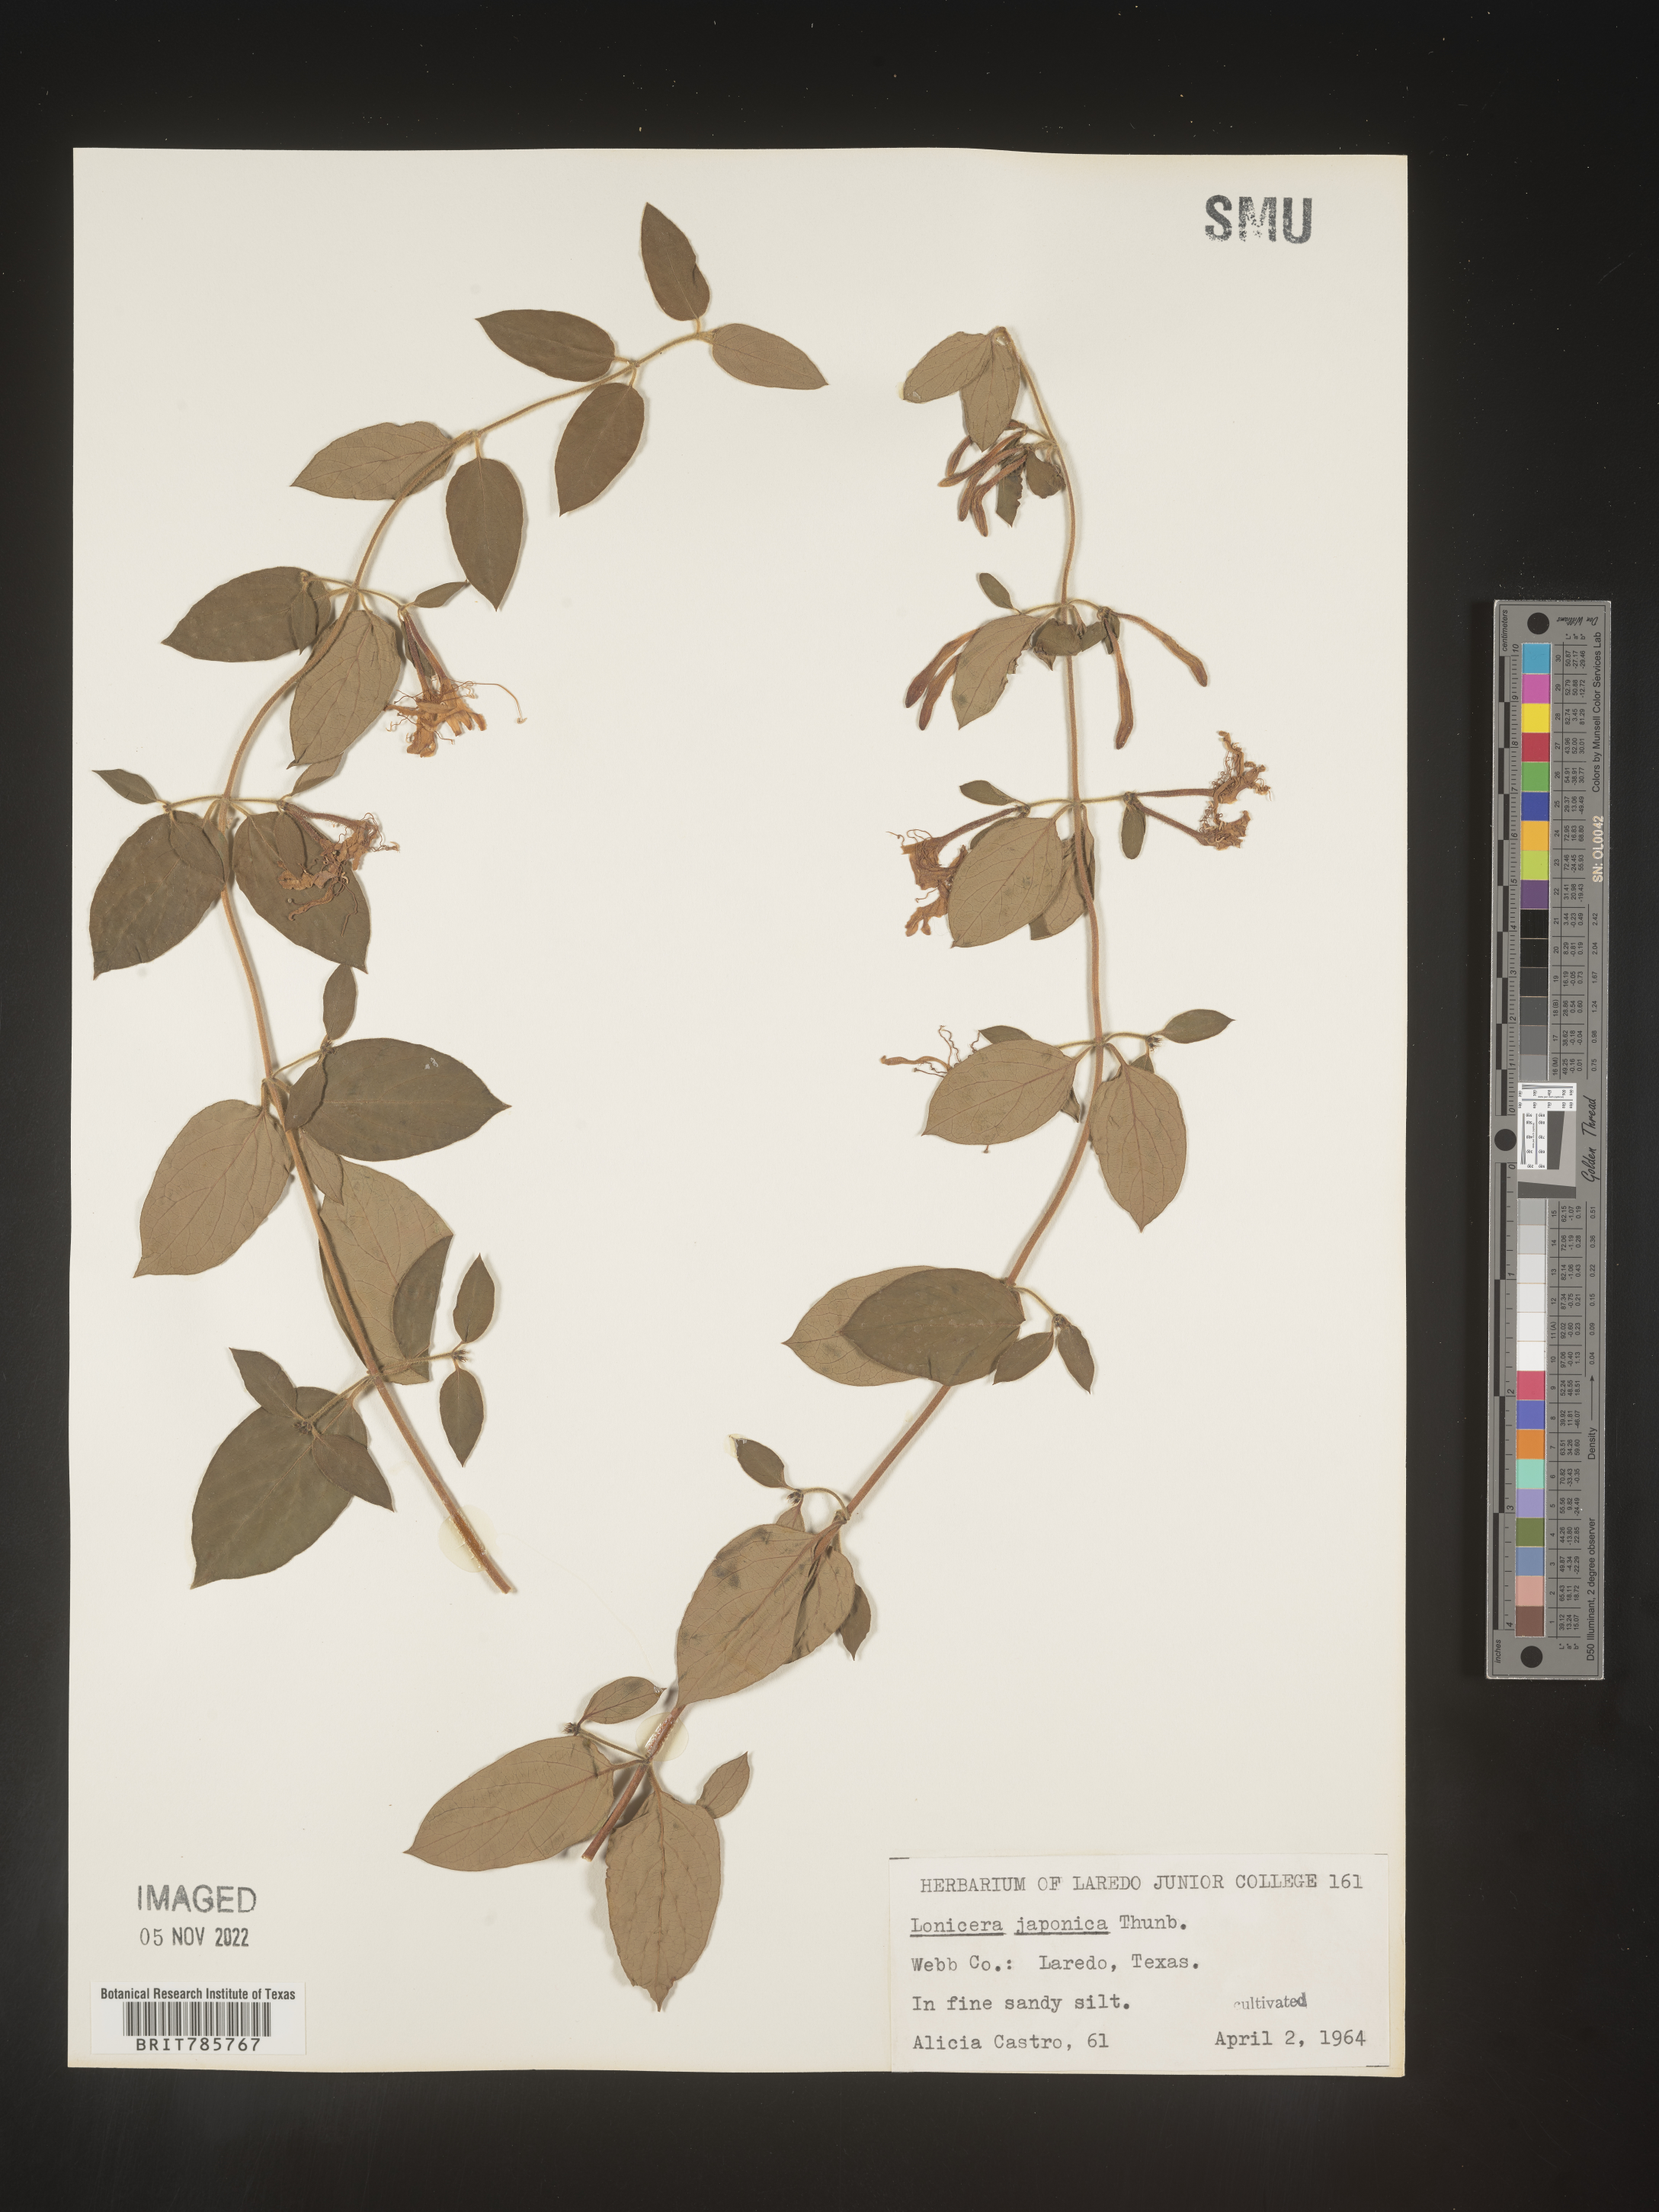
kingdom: Plantae
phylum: Tracheophyta
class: Magnoliopsida
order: Dipsacales
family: Caprifoliaceae
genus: Lonicera
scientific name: Lonicera
